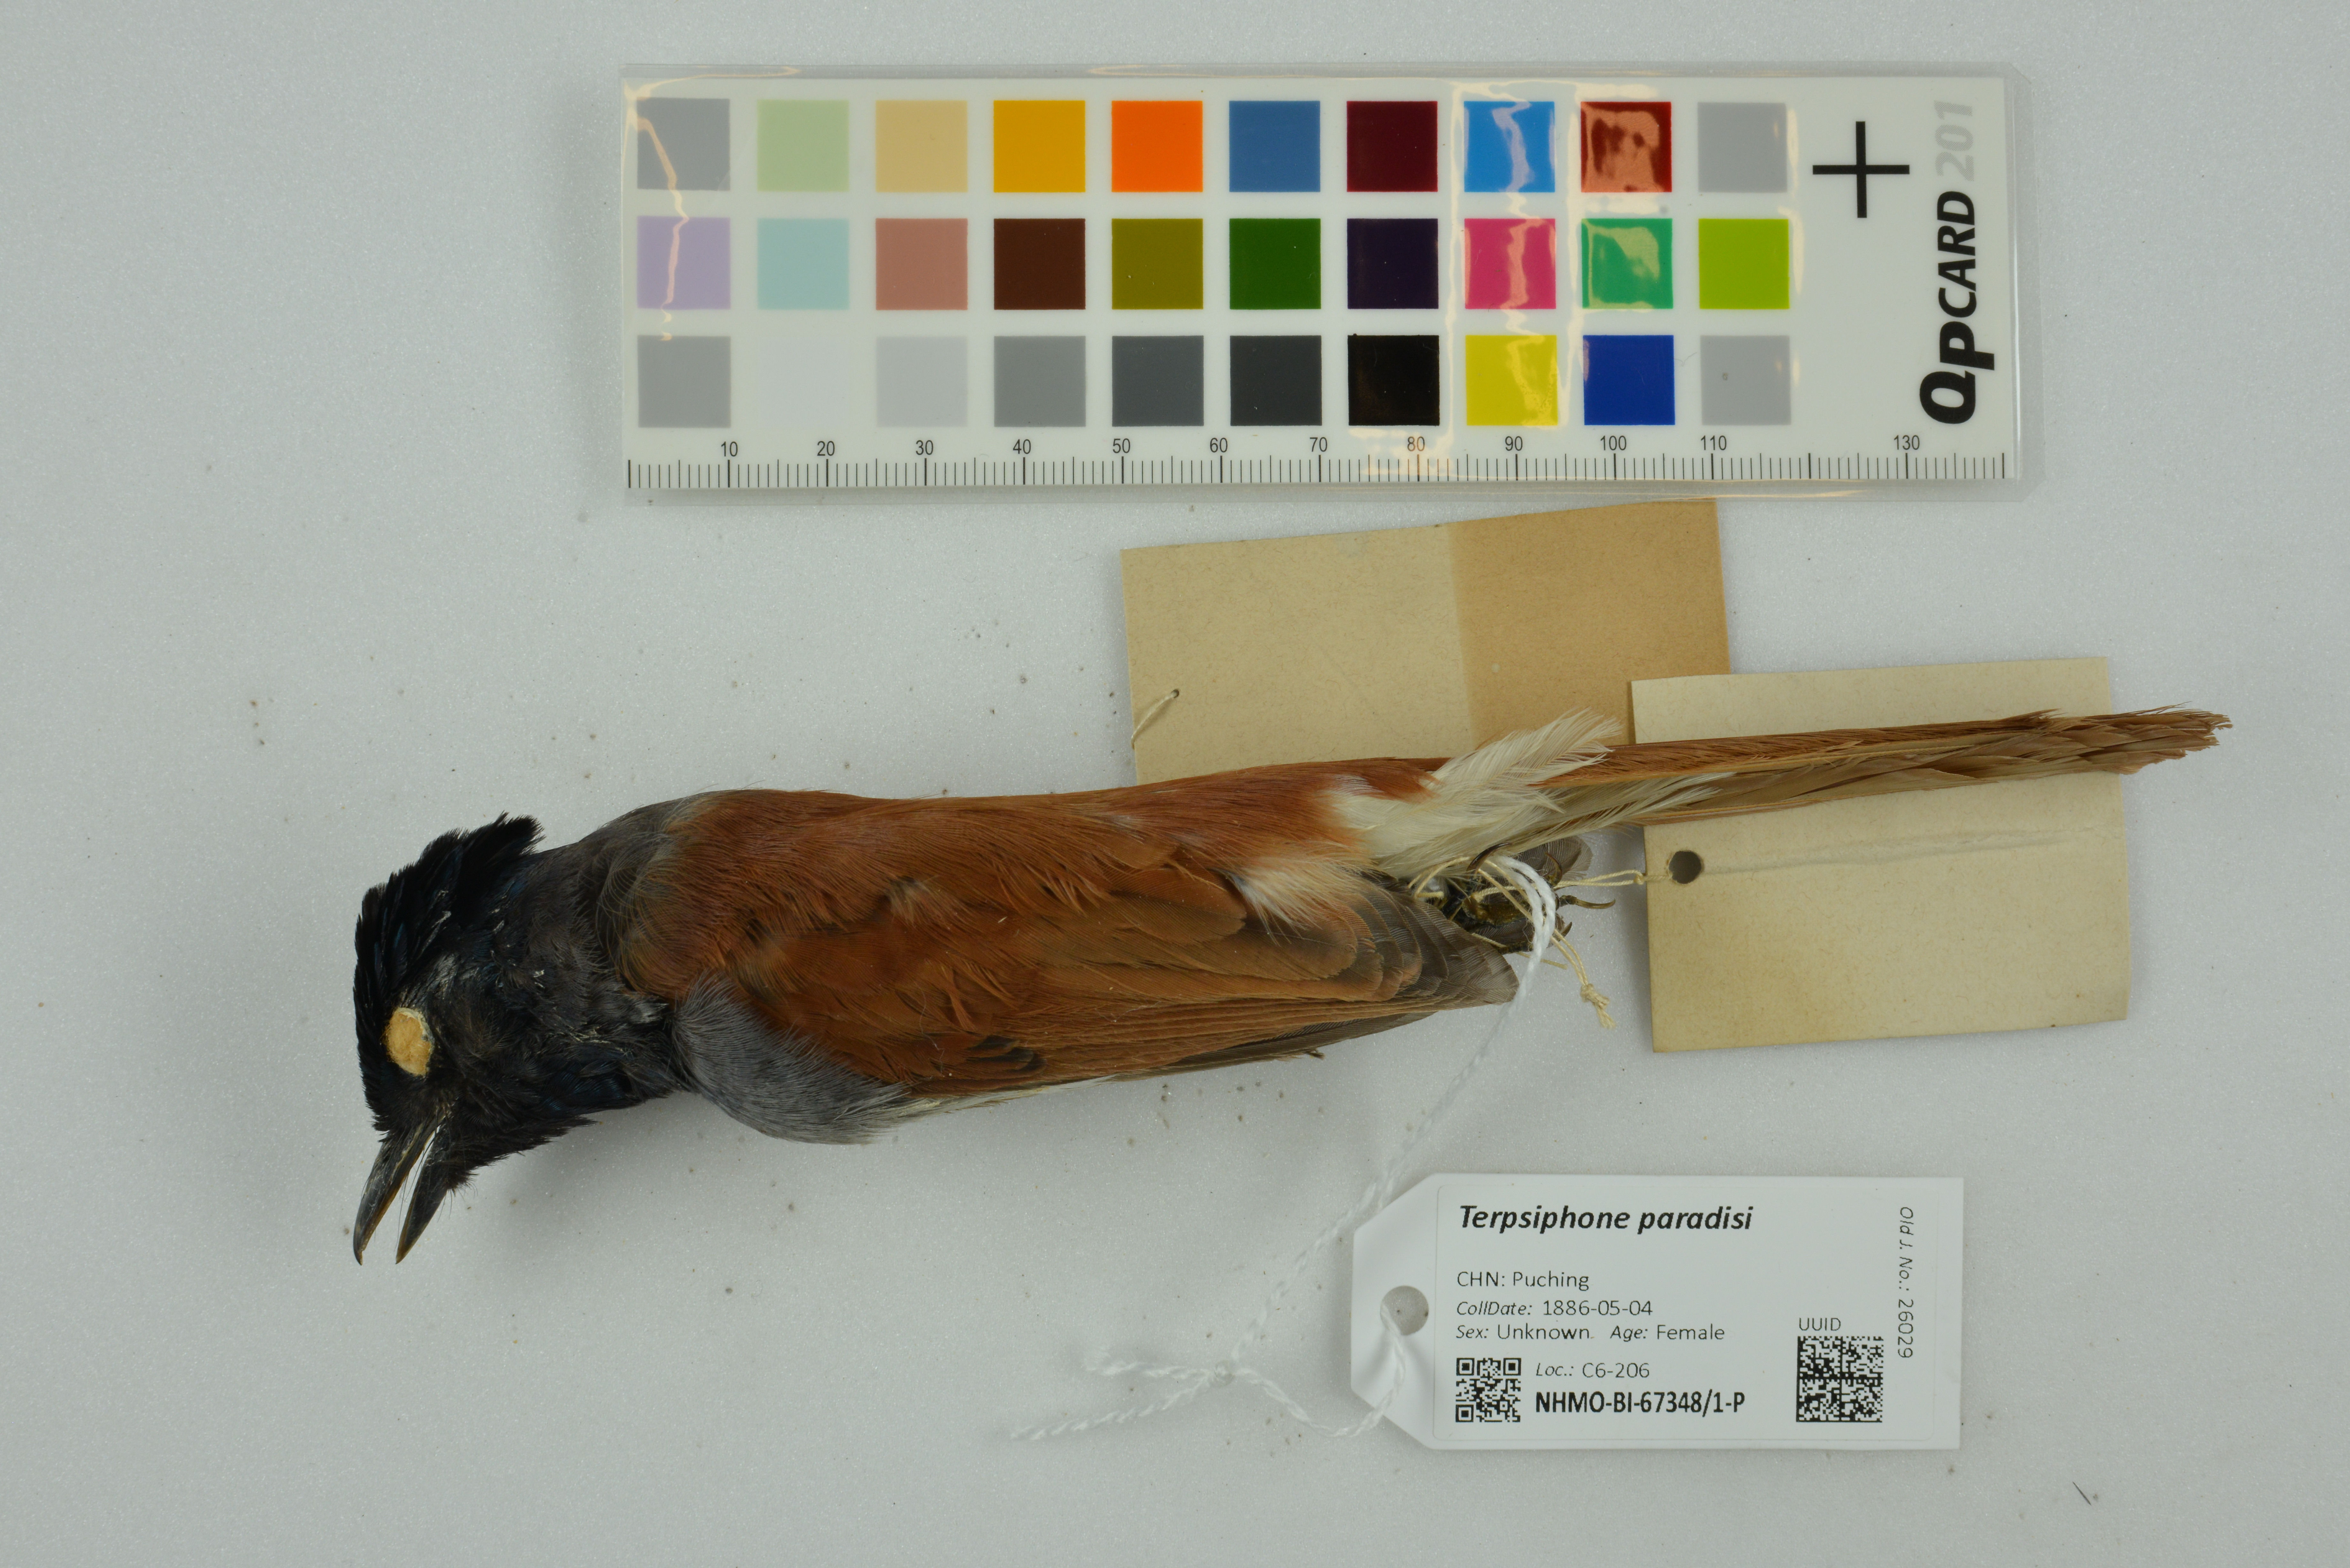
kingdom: Animalia
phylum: Chordata
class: Aves
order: Passeriformes
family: Monarchidae
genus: Terpsiphone
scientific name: Terpsiphone paradisi
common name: Indian paradise flycatcher
